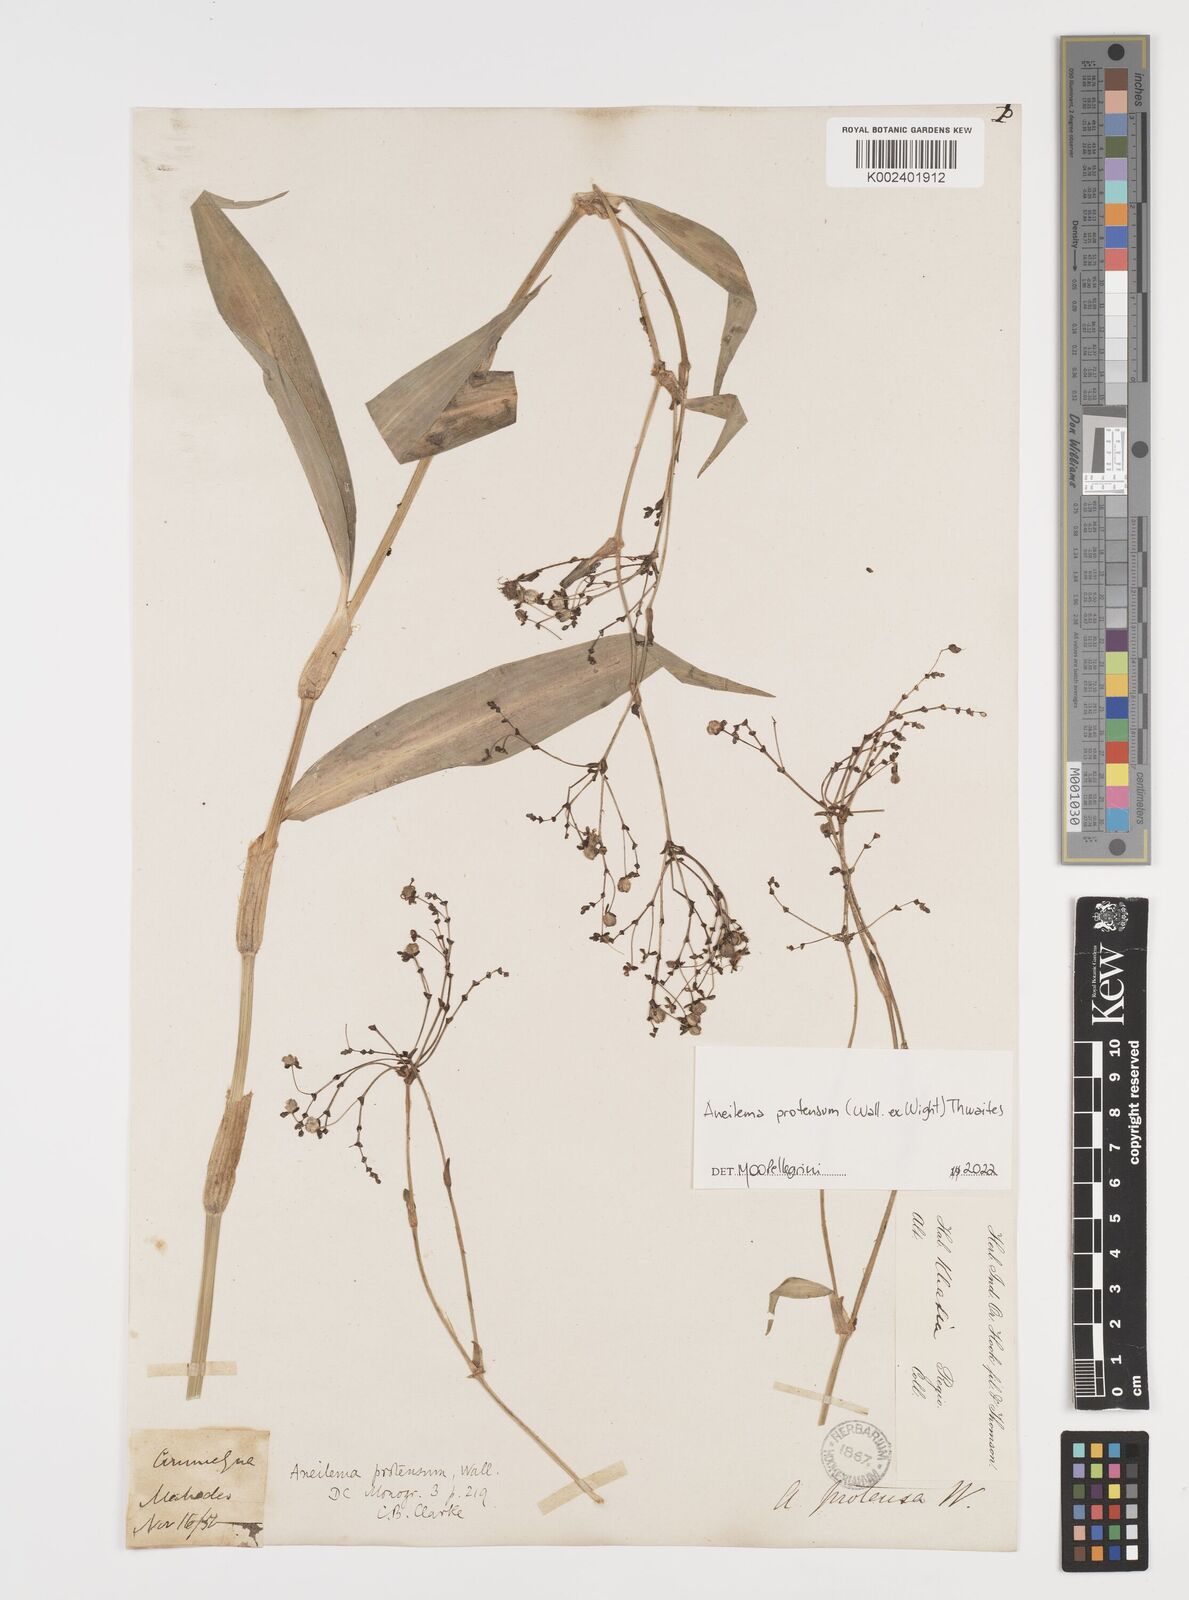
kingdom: Plantae
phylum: Tracheophyta
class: Liliopsida
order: Commelinales
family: Commelinaceae
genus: Rhopalephora
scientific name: Rhopalephora
